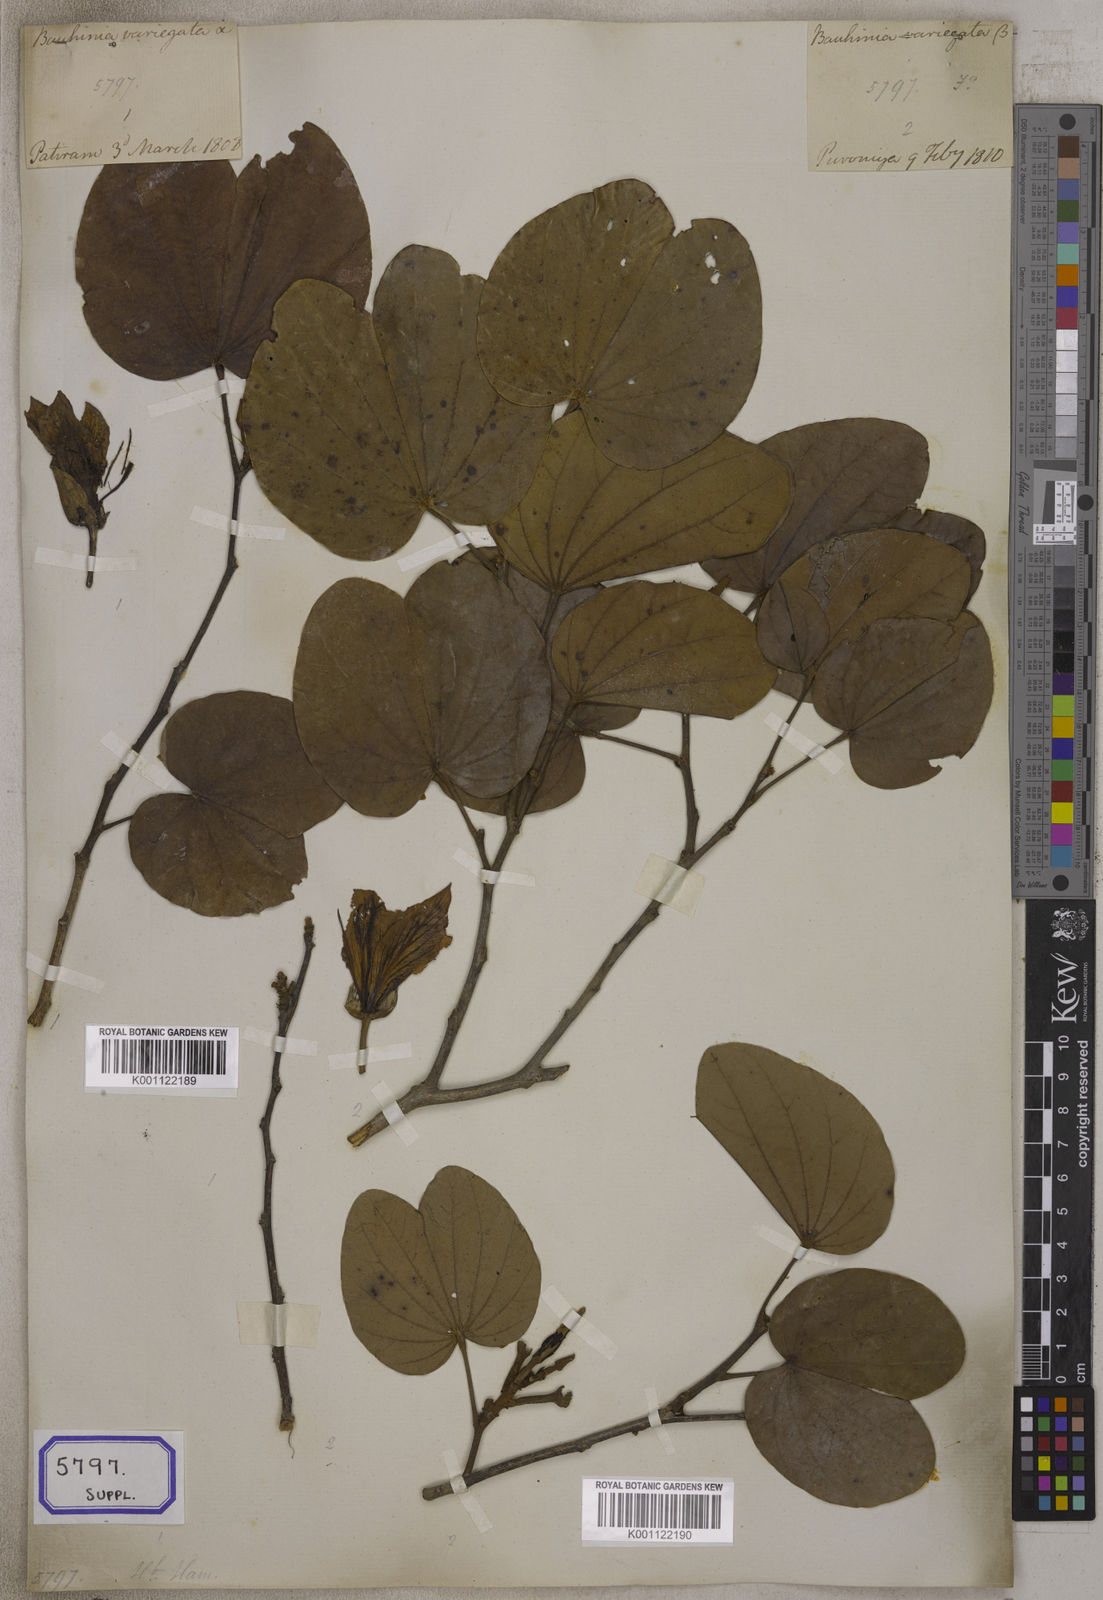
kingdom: Plantae
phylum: Tracheophyta
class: Magnoliopsida
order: Fabales
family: Fabaceae
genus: Bauhinia
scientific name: Bauhinia
